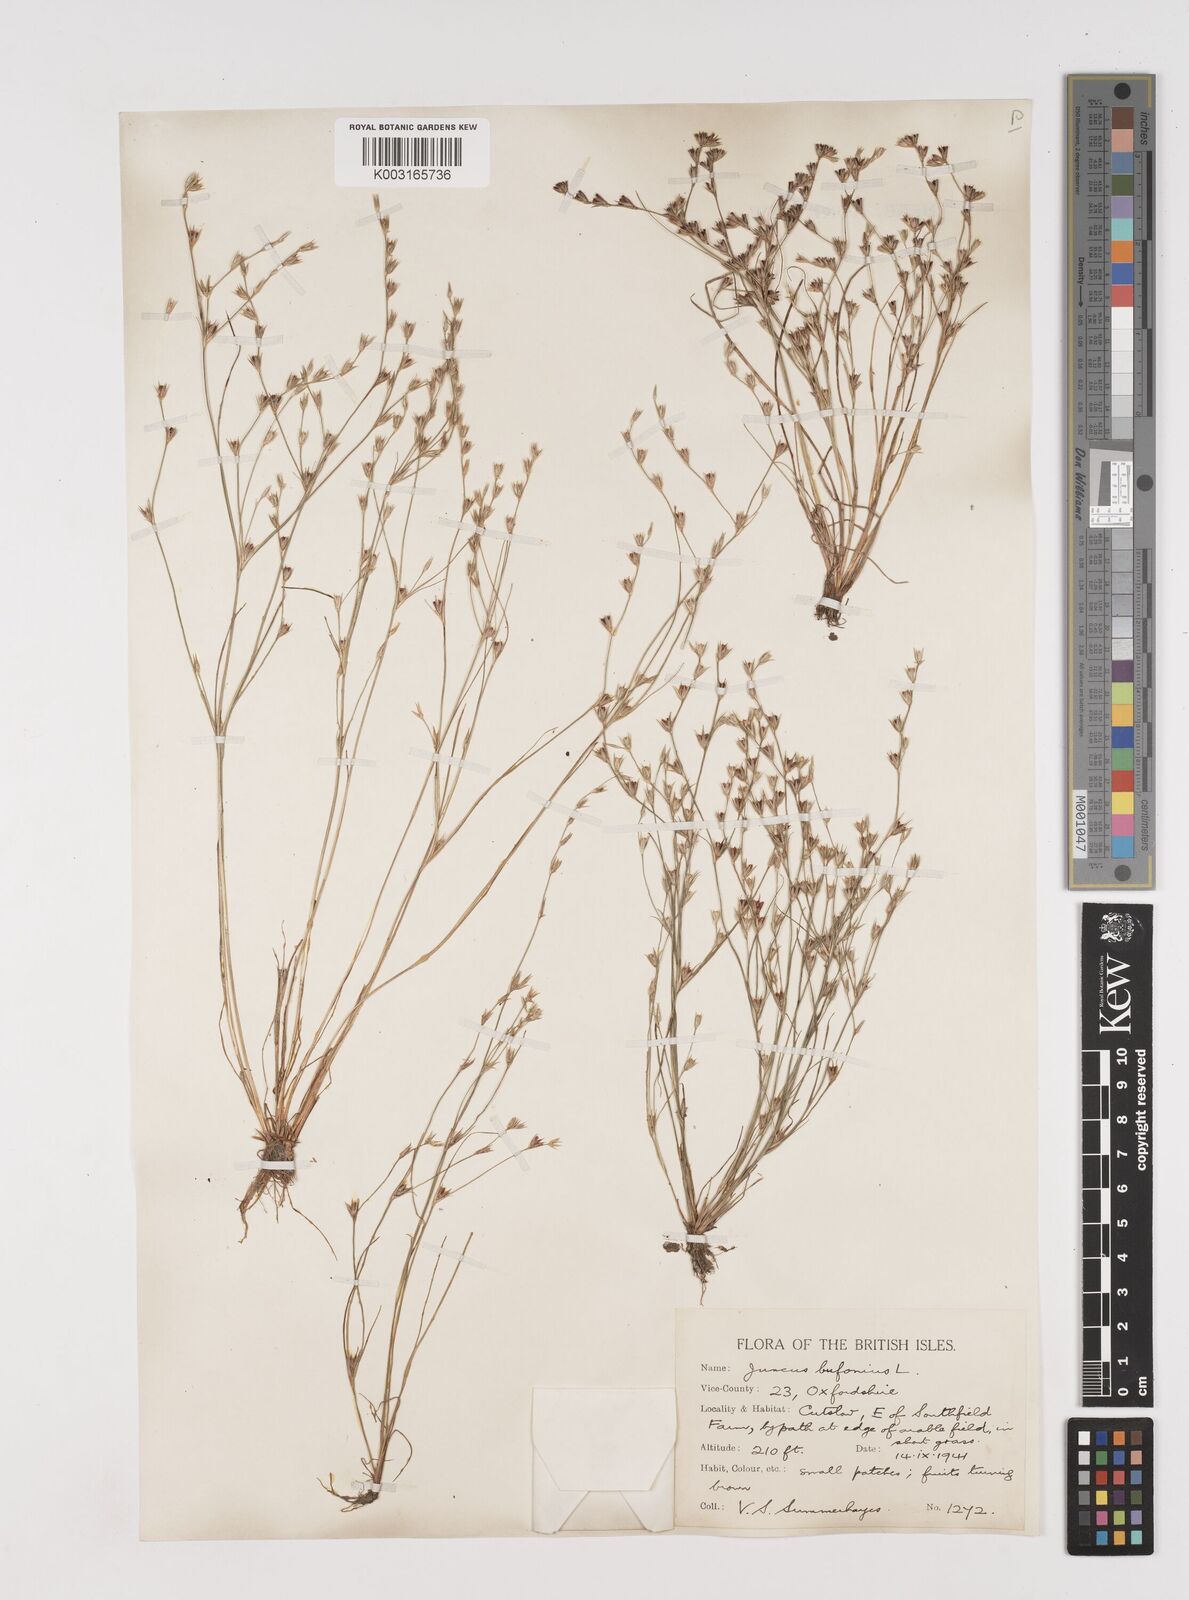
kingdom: Plantae
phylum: Tracheophyta
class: Liliopsida
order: Poales
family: Juncaceae
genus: Juncus
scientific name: Juncus bufonius
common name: Toad rush
